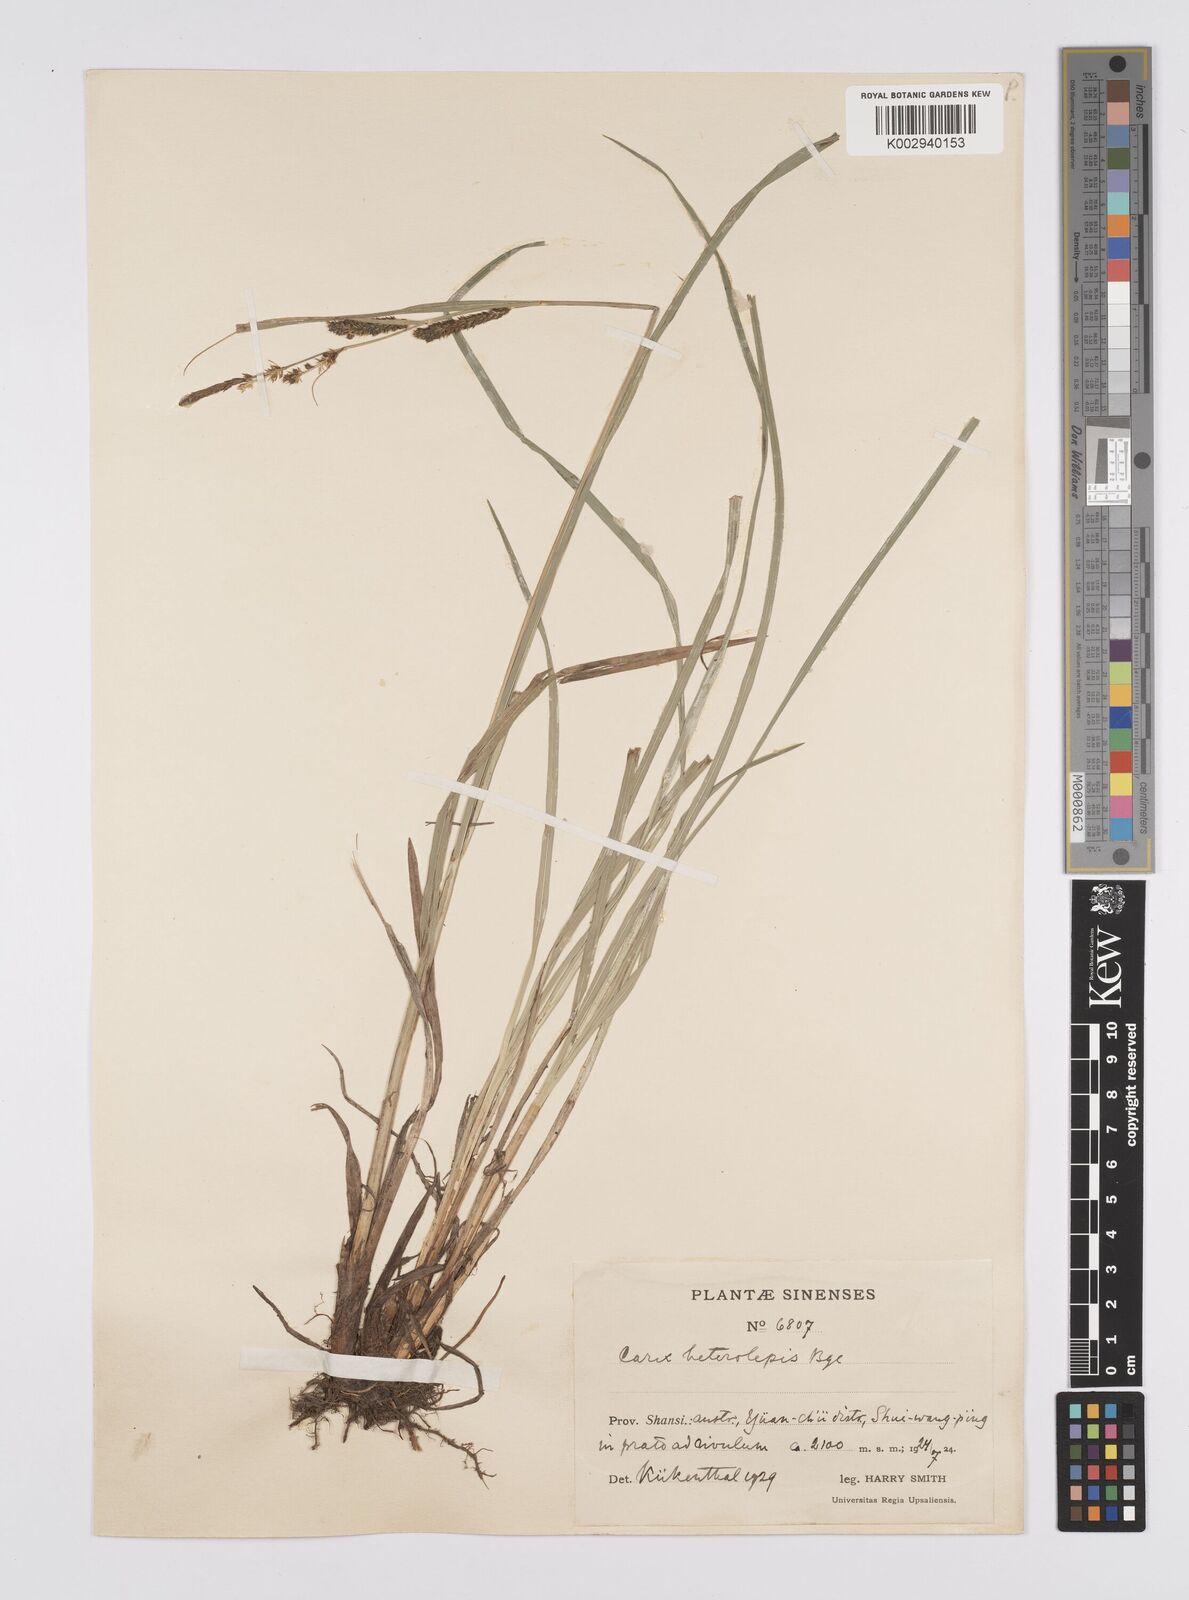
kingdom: Plantae
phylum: Tracheophyta
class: Liliopsida
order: Poales
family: Cyperaceae
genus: Carex
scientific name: Carex cruenta
